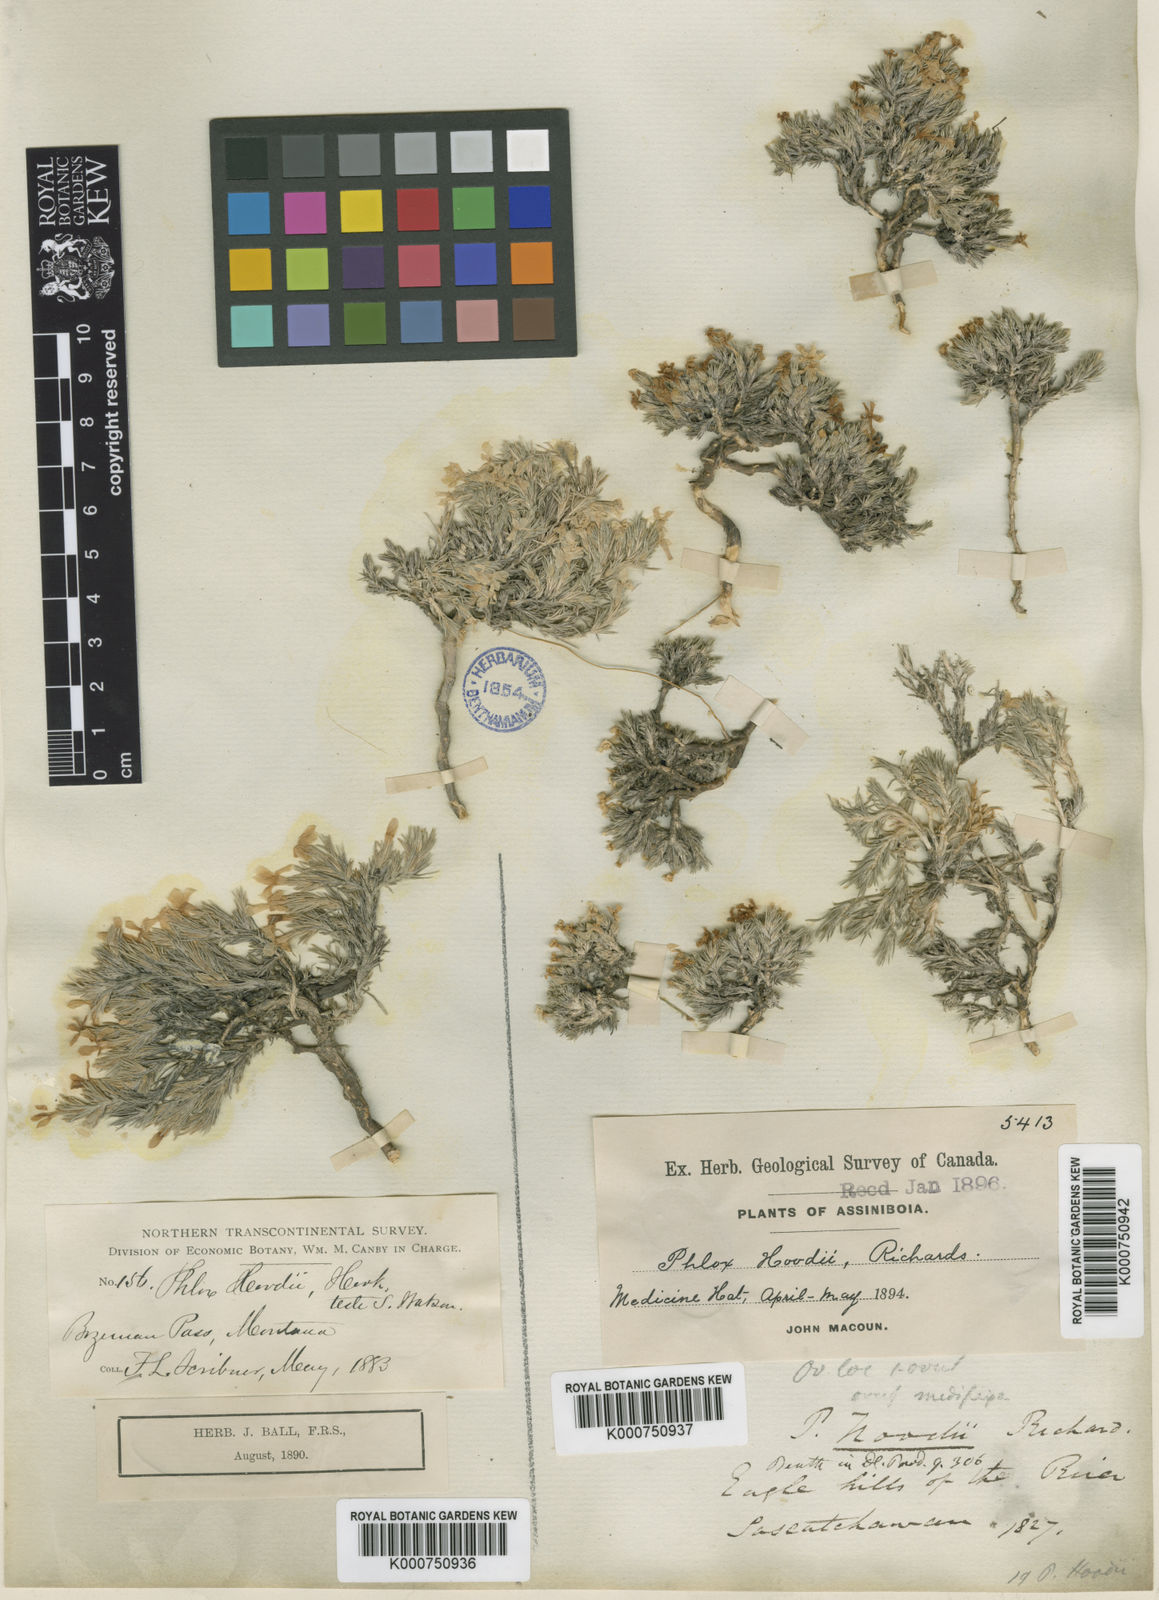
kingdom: Plantae
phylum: Tracheophyta
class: Magnoliopsida
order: Ericales
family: Polemoniaceae
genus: Phlox
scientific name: Phlox hoodii
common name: Moss phlox
